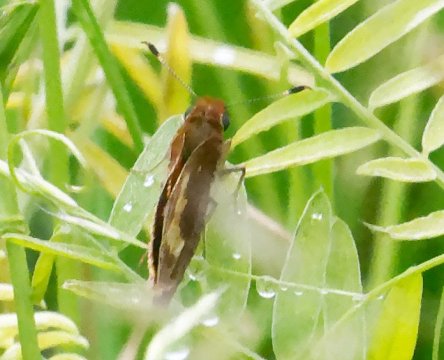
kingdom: Animalia
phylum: Arthropoda
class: Insecta
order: Lepidoptera
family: Hesperiidae
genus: Lon
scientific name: Lon hobomok
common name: Hobomok Skipper
